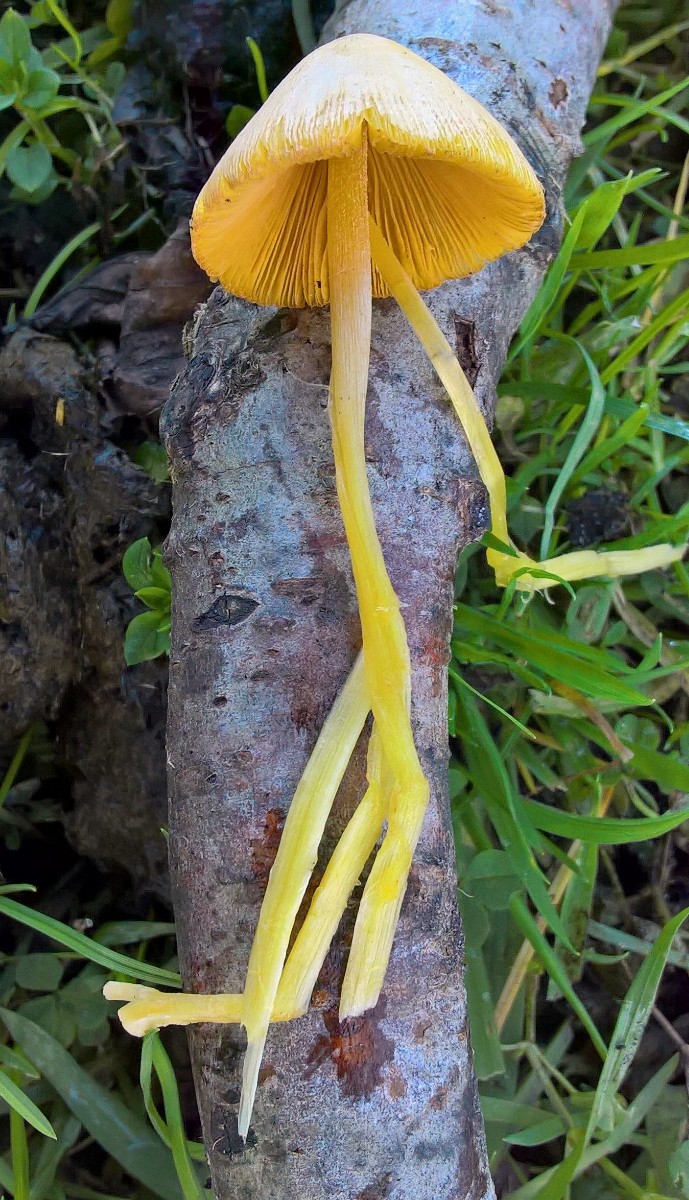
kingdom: Fungi
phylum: Basidiomycota
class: Agaricomycetes
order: Agaricales
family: Bolbitiaceae
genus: Bolbitius
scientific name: Bolbitius titubans
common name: almindelig gulhat
